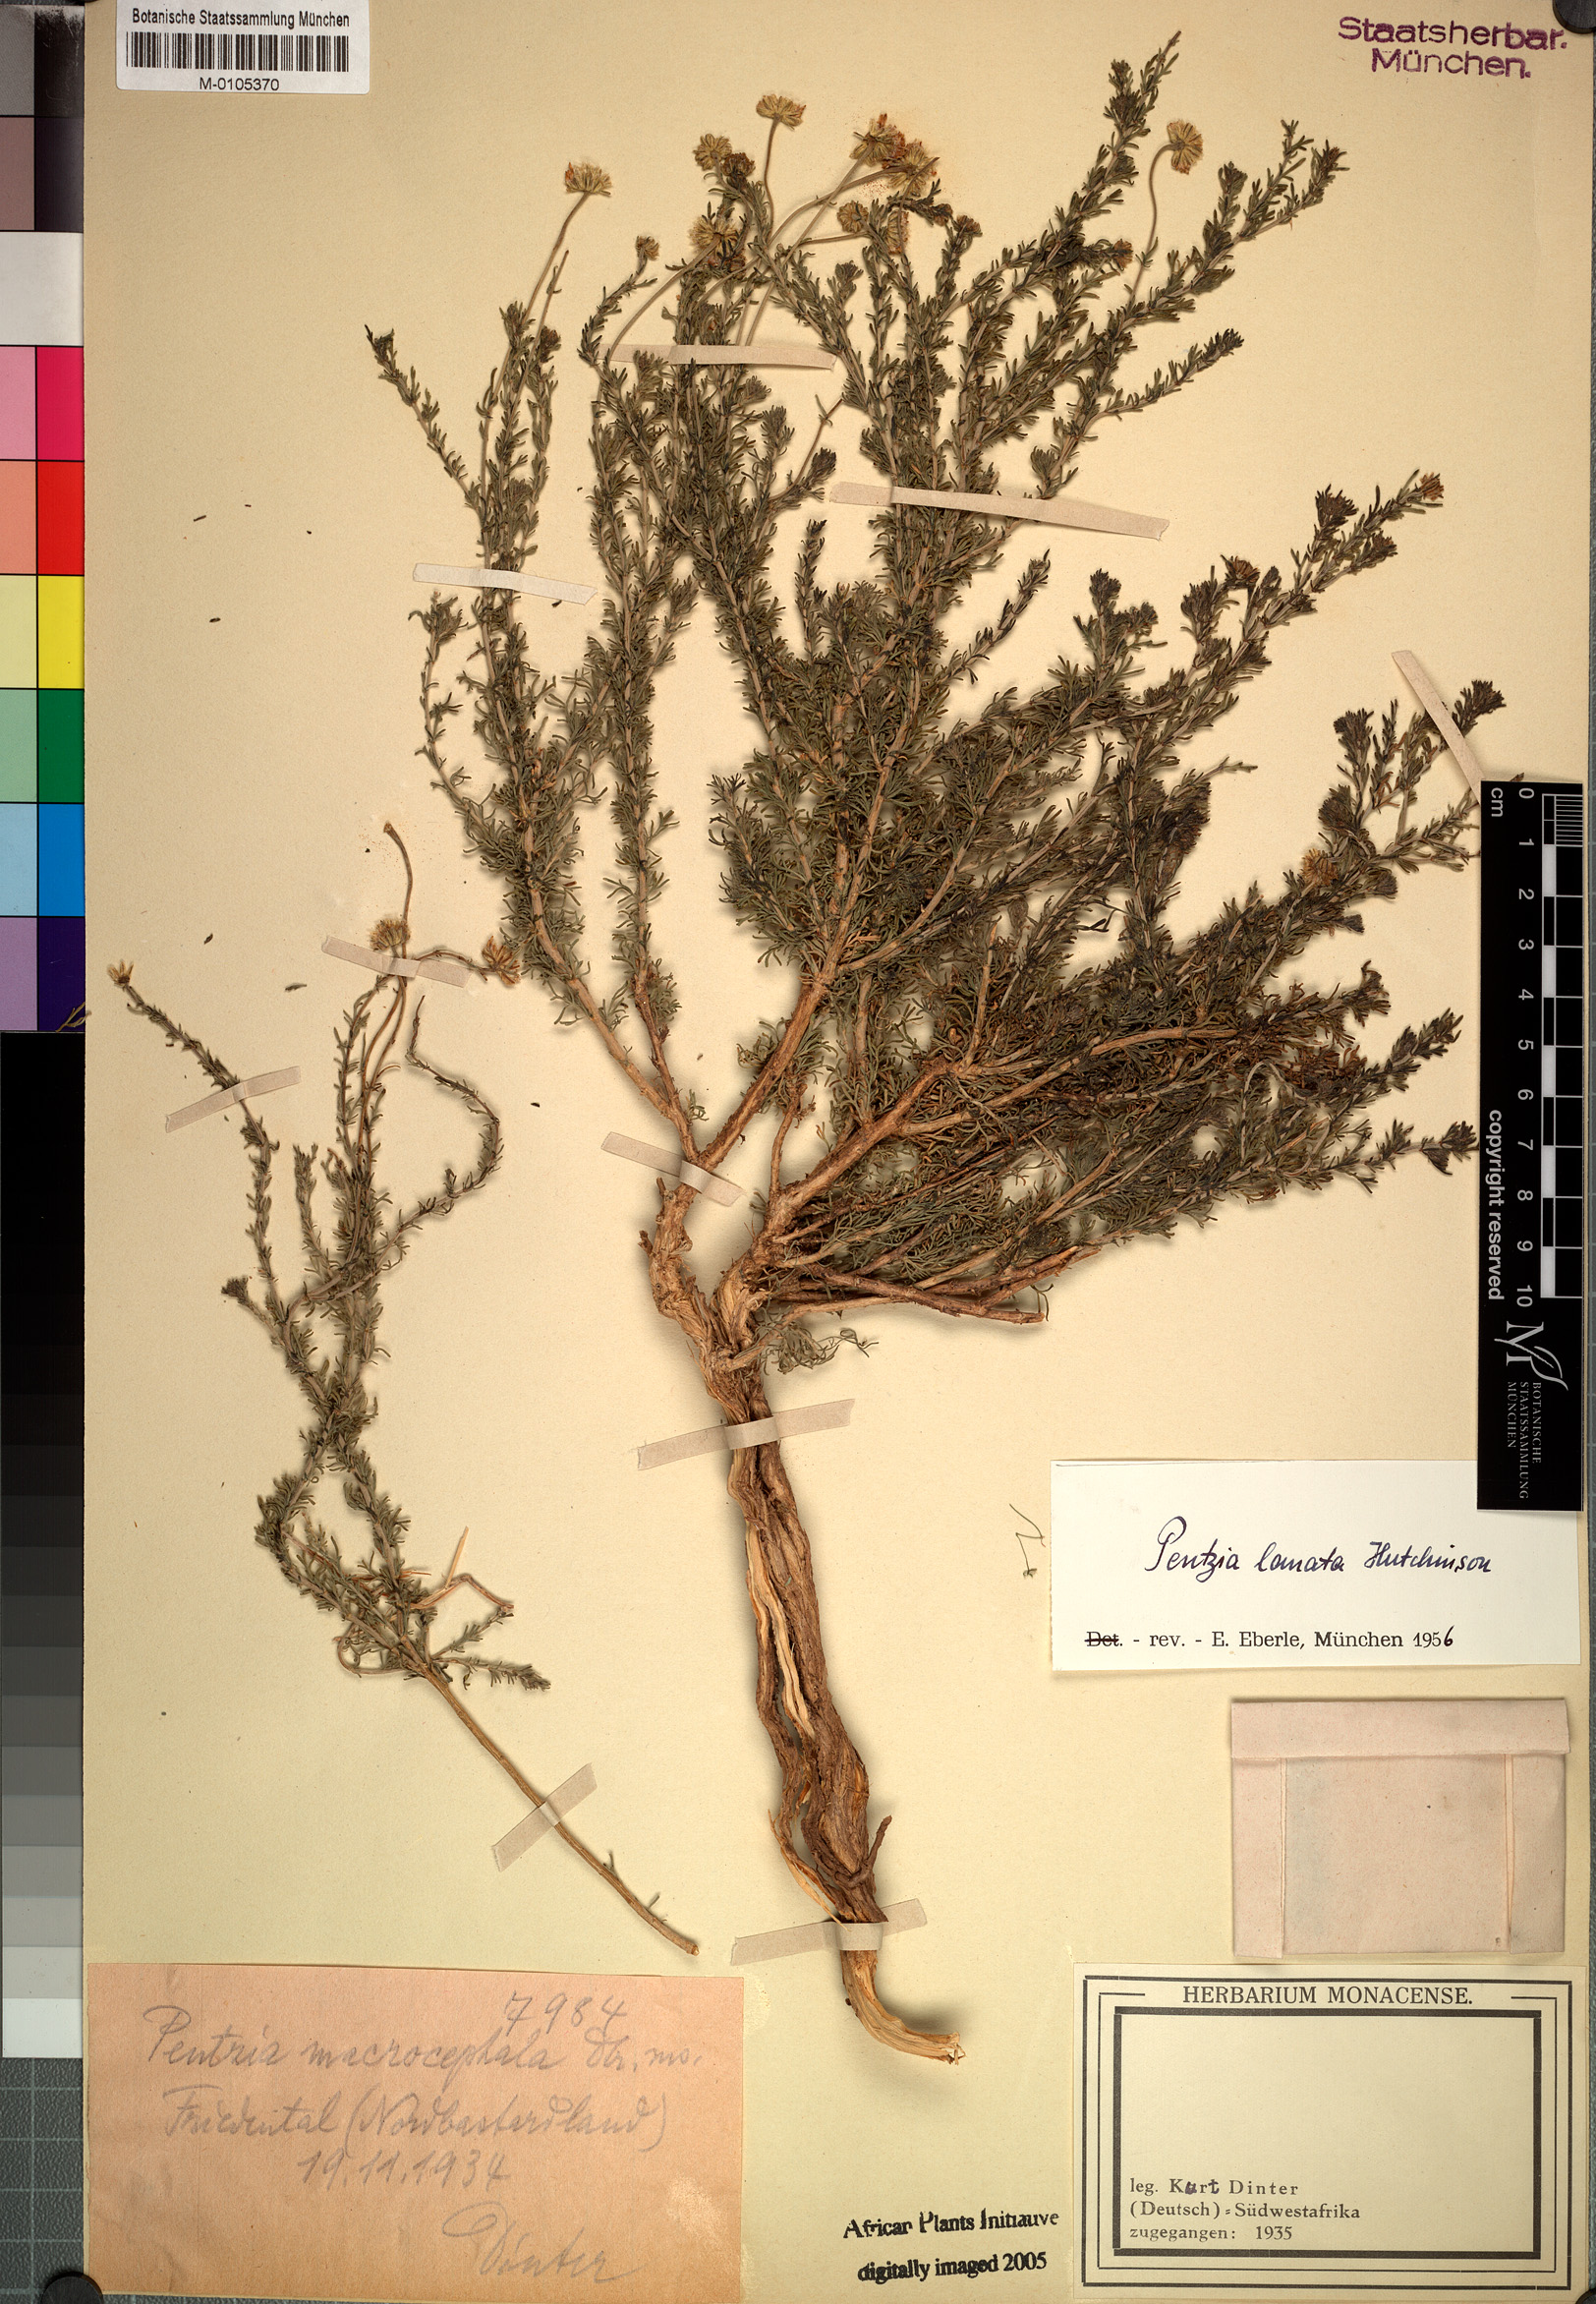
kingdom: Plantae
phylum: Tracheophyta
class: Magnoliopsida
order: Asterales
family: Asteraceae
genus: Pentzia
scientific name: Pentzia lanata
